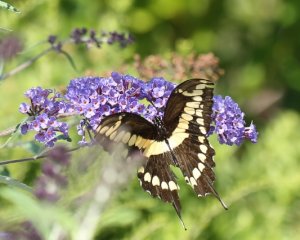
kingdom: Animalia
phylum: Arthropoda
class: Insecta
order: Lepidoptera
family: Papilionidae
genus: Papilio
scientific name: Papilio cresphontes
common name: Eastern Giant Swallowtail
